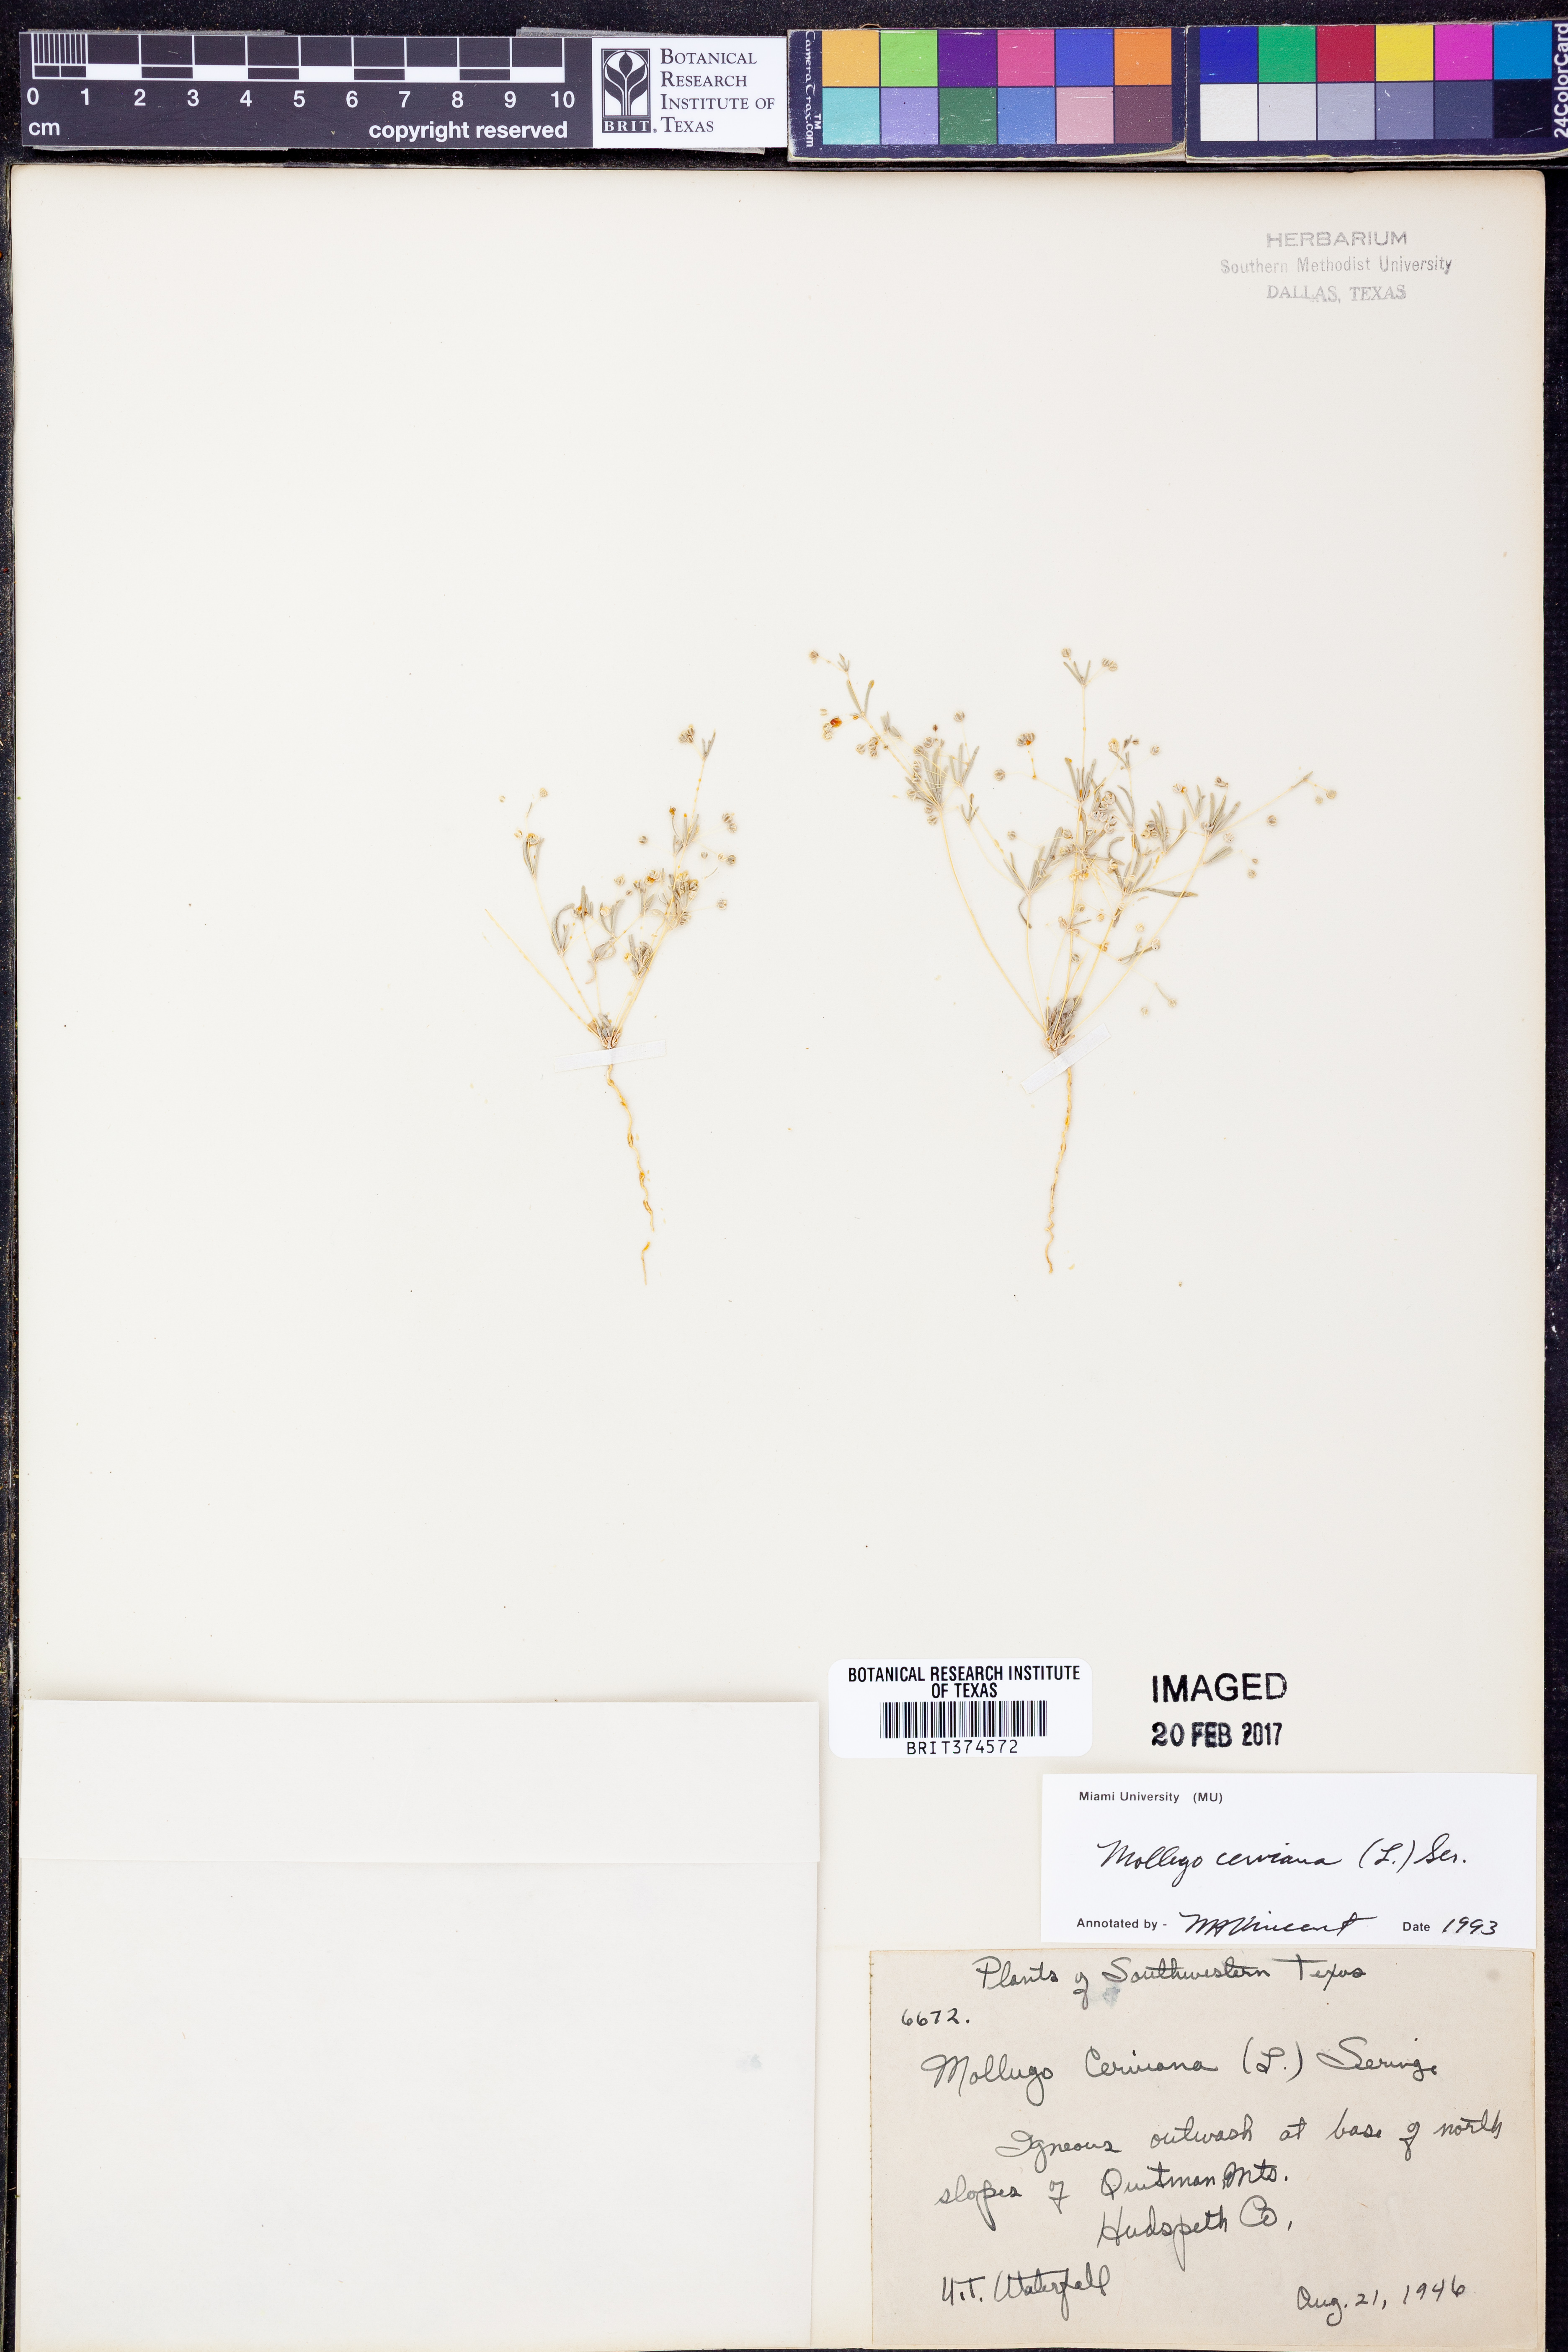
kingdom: Plantae
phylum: Tracheophyta
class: Magnoliopsida
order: Caryophyllales
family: Molluginaceae
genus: Hypertelis
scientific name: Hypertelis cerviana
